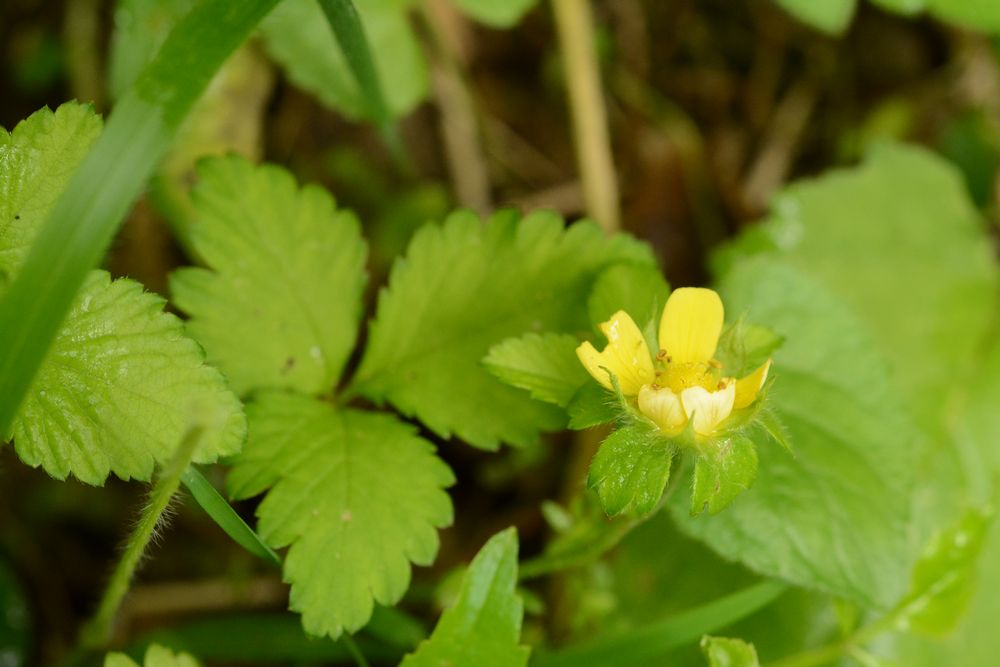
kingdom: Plantae
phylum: Tracheophyta
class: Magnoliopsida
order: Rosales
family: Rosaceae
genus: Potentilla
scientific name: Potentilla indica
